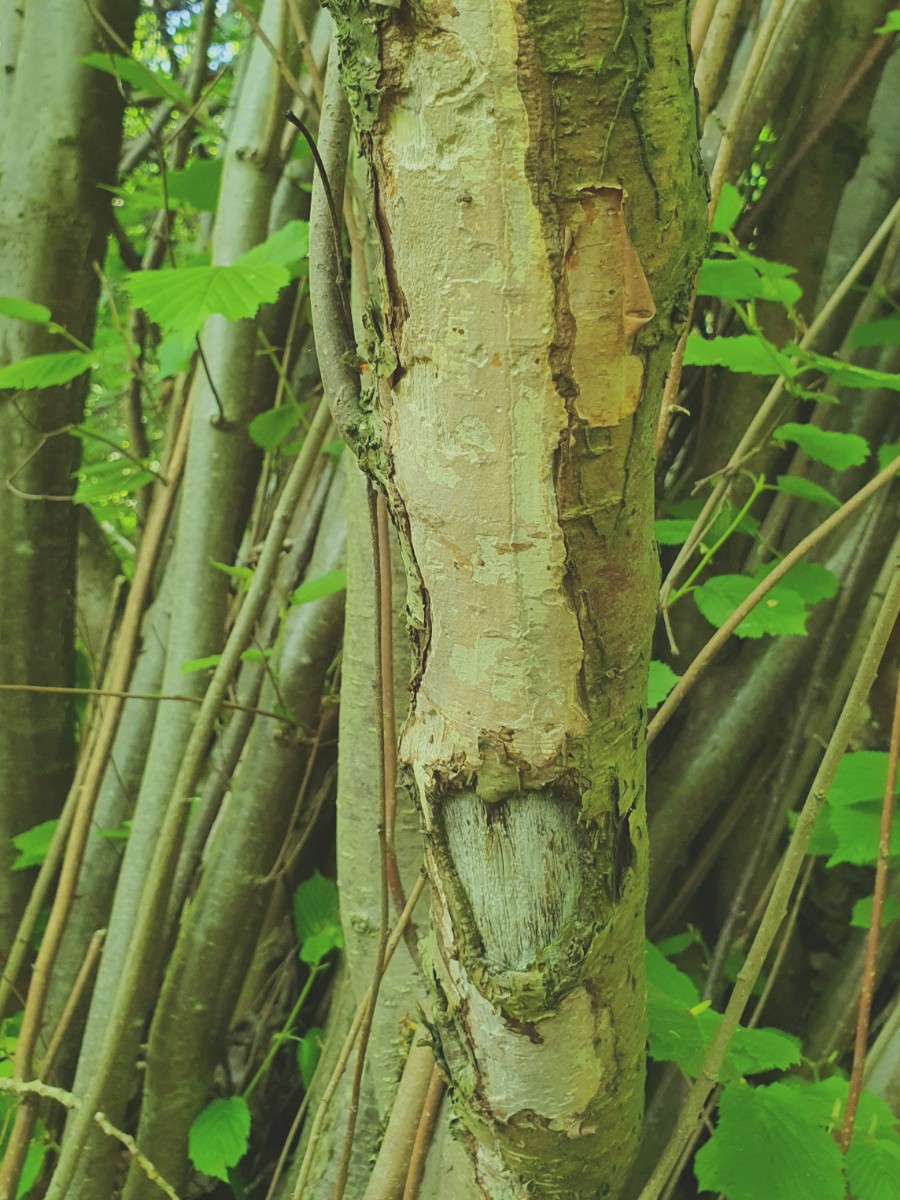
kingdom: Fungi
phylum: Basidiomycota
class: Agaricomycetes
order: Corticiales
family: Vuilleminiaceae
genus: Vuilleminia
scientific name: Vuilleminia coryli
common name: hassel-barksprænger
